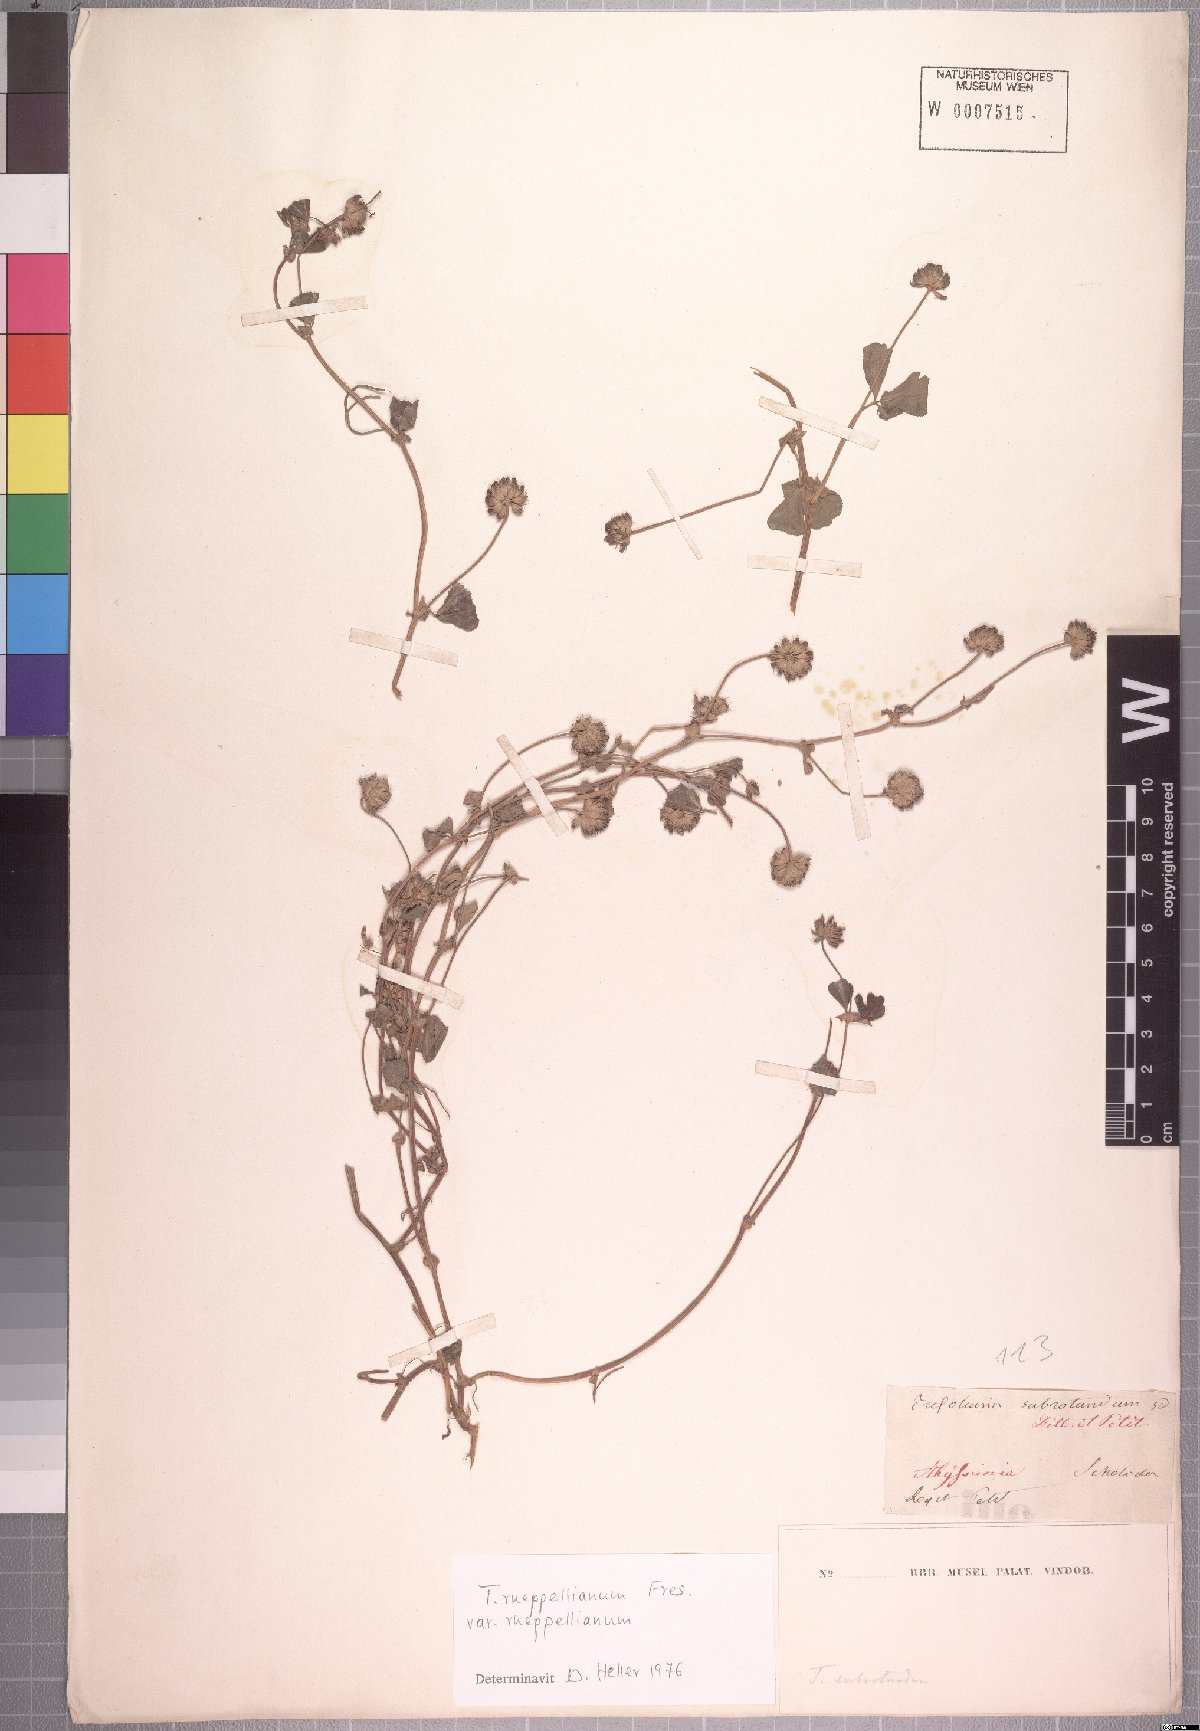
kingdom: Plantae
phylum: Tracheophyta
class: Magnoliopsida
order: Fabales
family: Fabaceae
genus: Trifolium
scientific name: Trifolium rueppellianum
